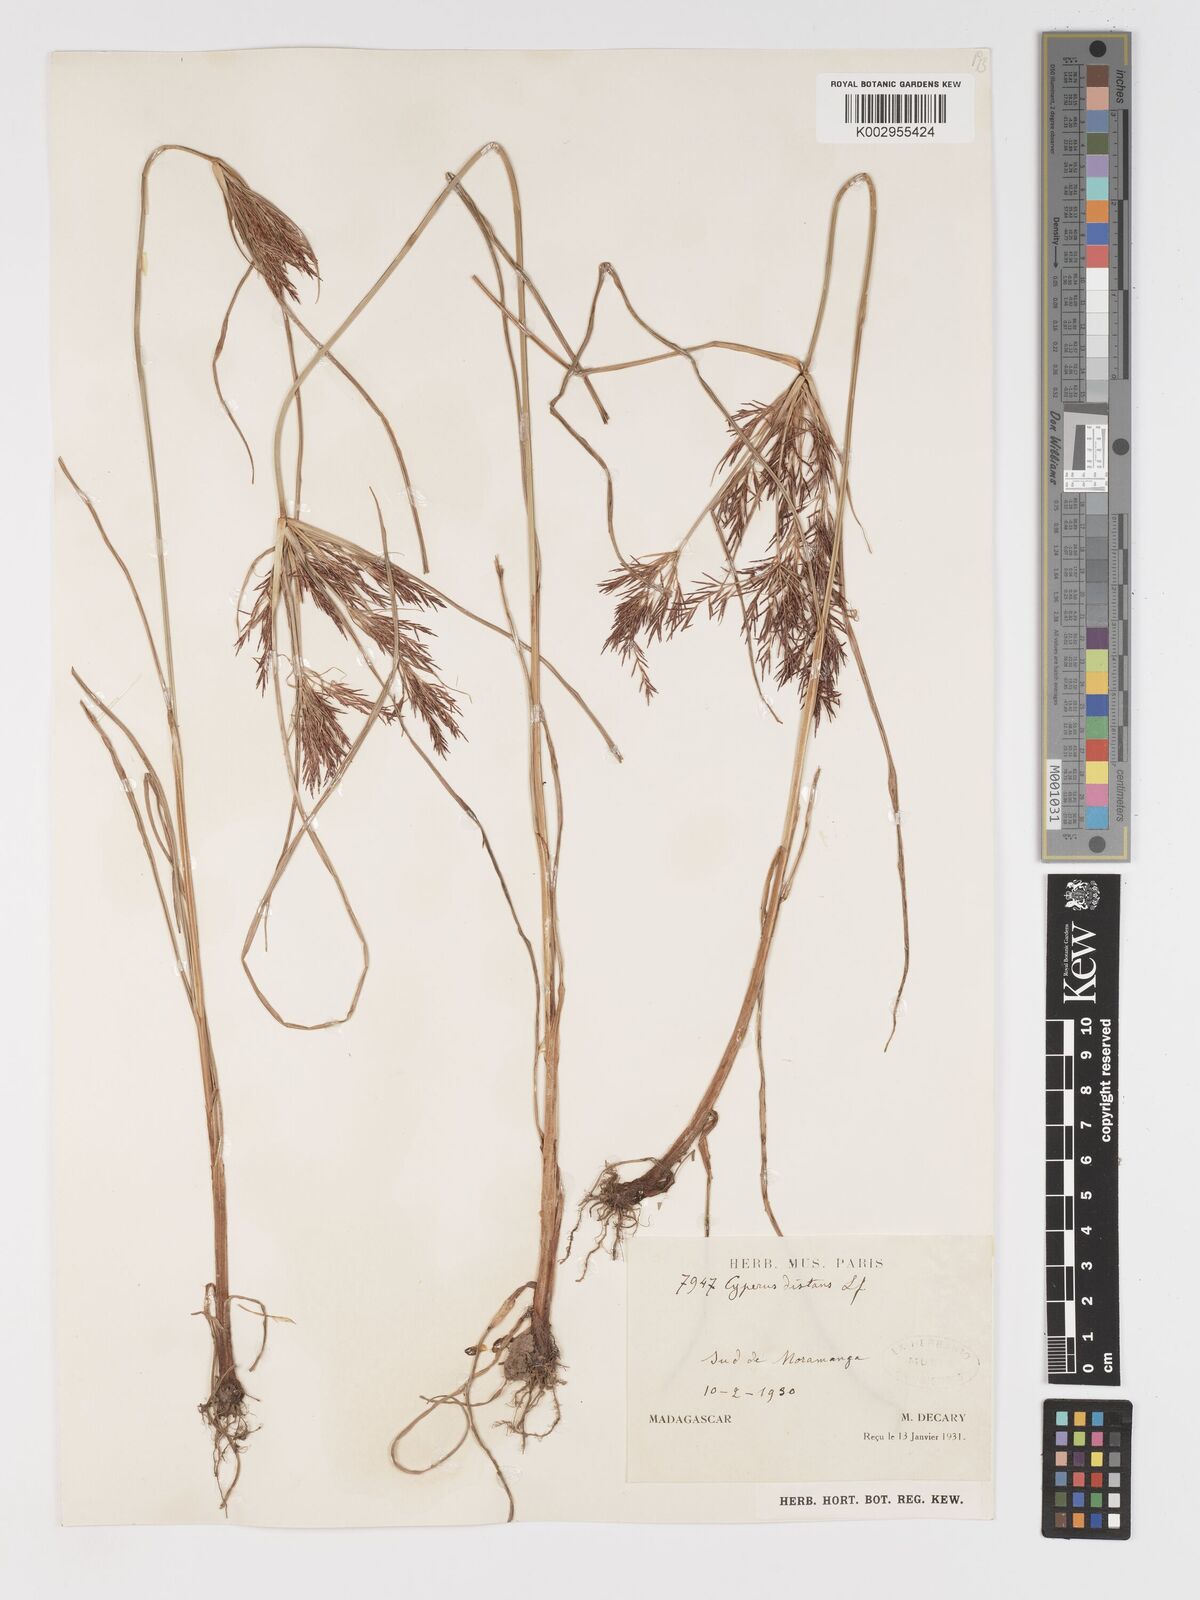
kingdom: Plantae
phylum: Tracheophyta
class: Liliopsida
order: Poales
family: Cyperaceae
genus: Cyperus
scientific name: Cyperus distans
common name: Slender cyperus
